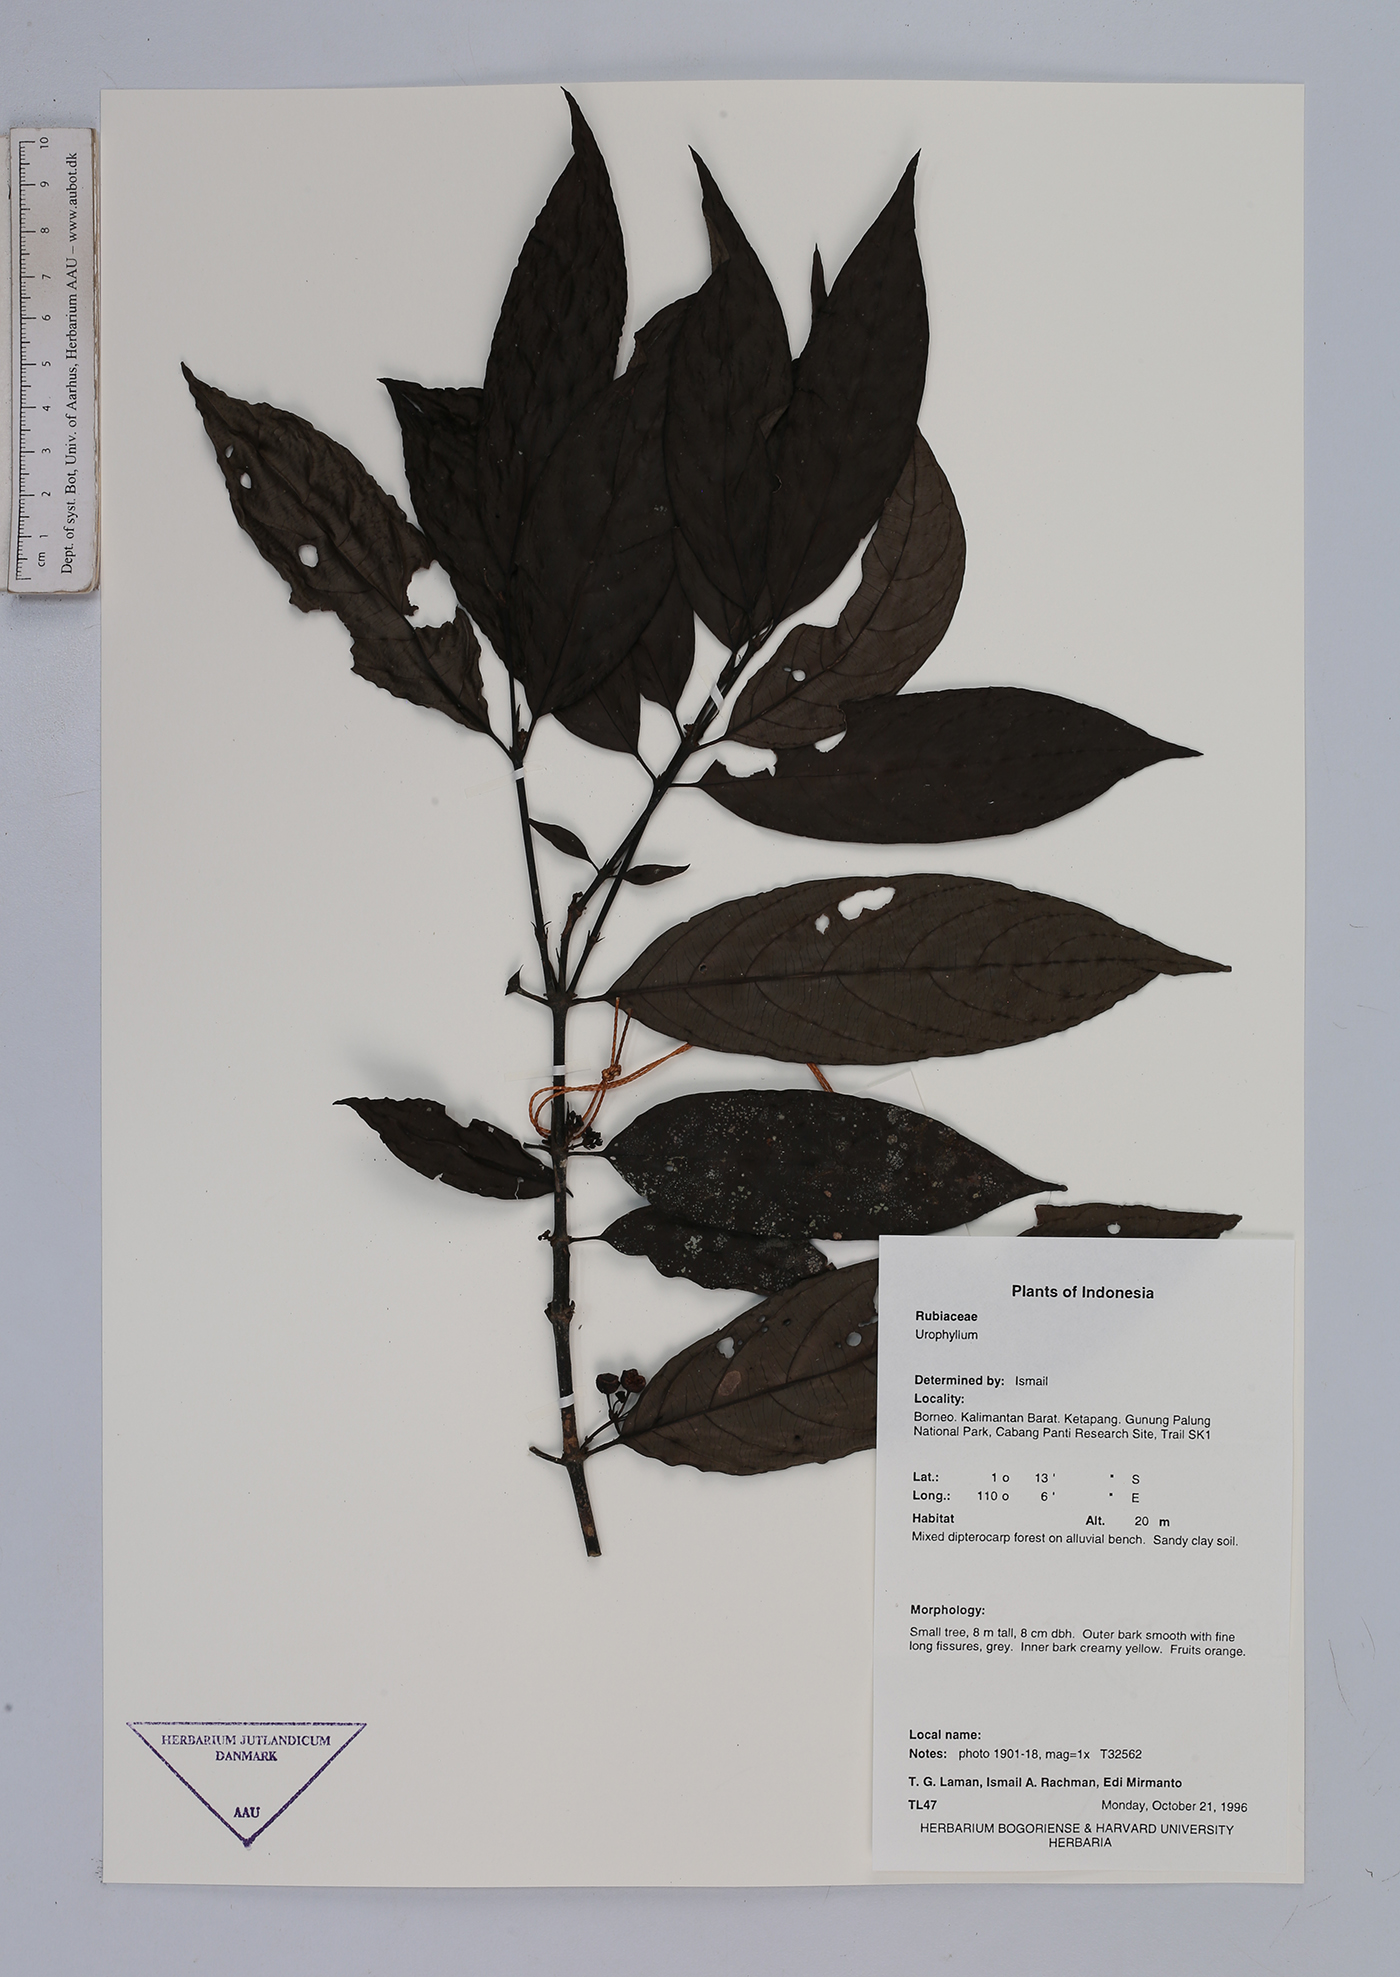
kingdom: Plantae
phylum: Tracheophyta
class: Magnoliopsida
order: Gentianales
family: Rubiaceae
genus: Urophyllum
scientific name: Urophyllum
